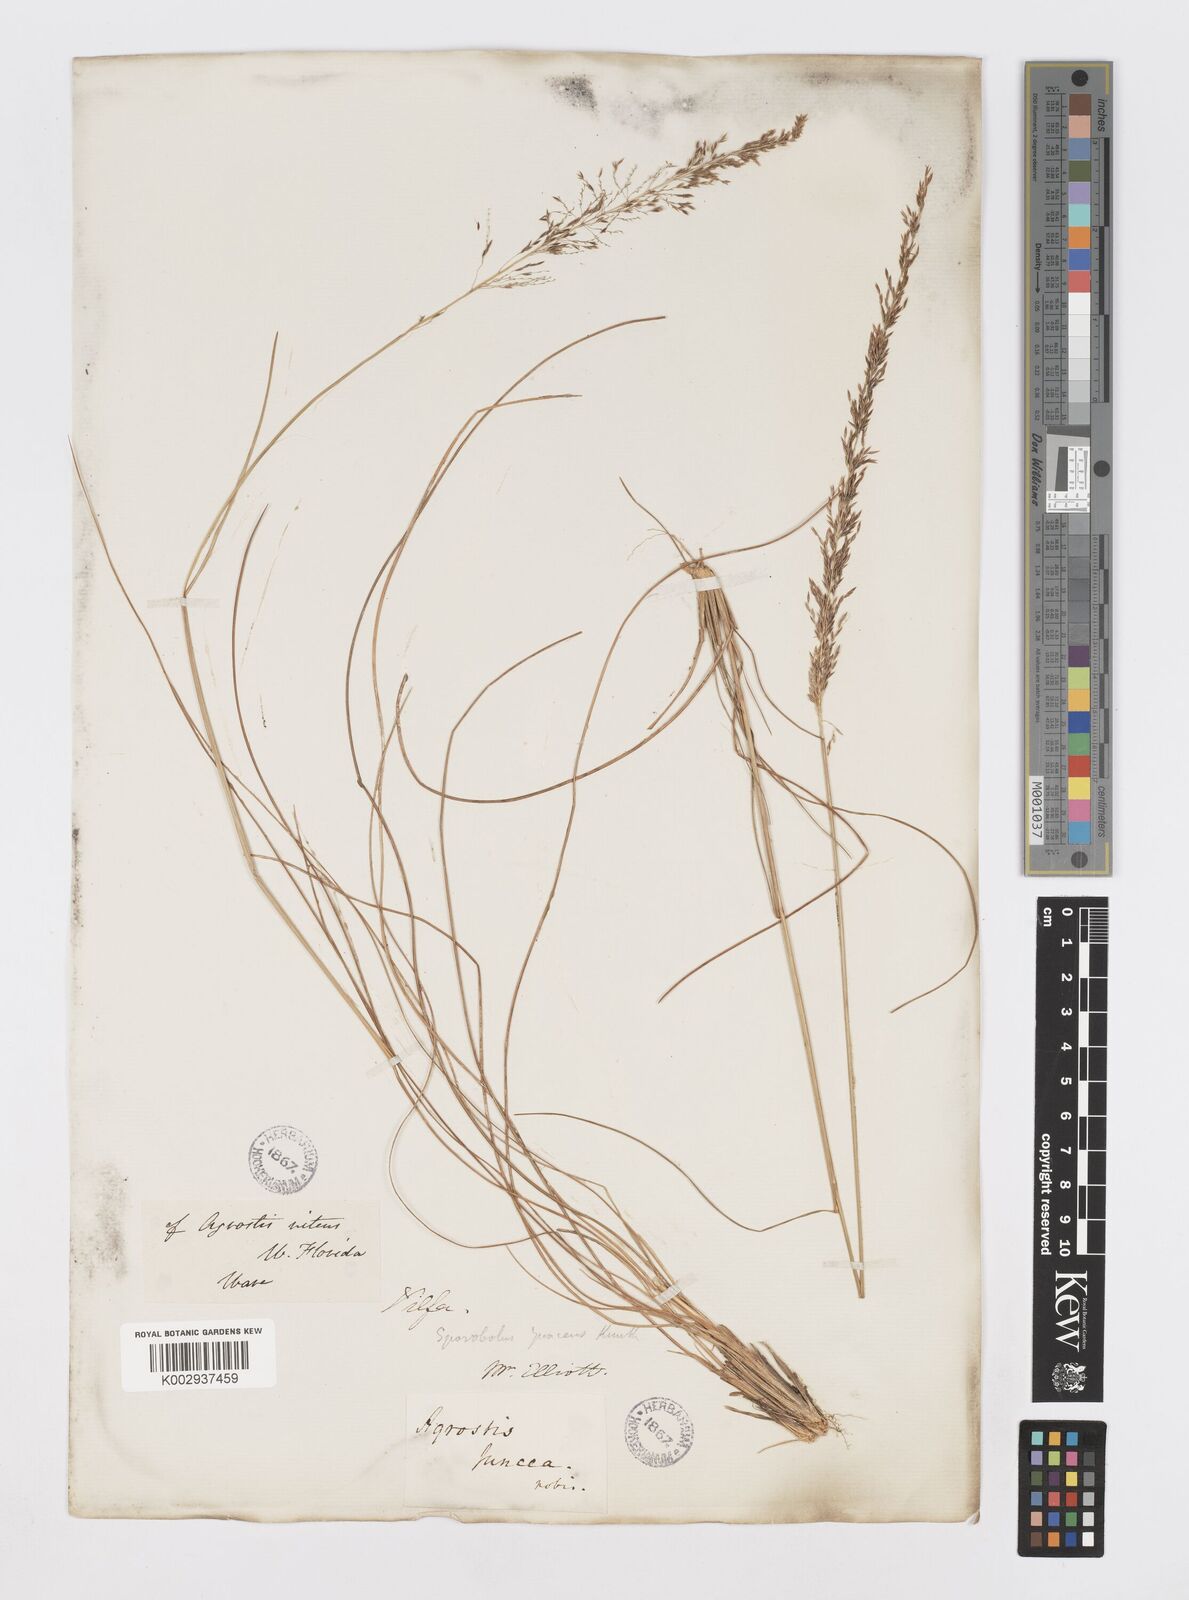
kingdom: Plantae
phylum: Tracheophyta
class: Liliopsida
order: Poales
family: Poaceae
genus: Sporobolus
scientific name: Sporobolus junceus
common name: Lizard grass
